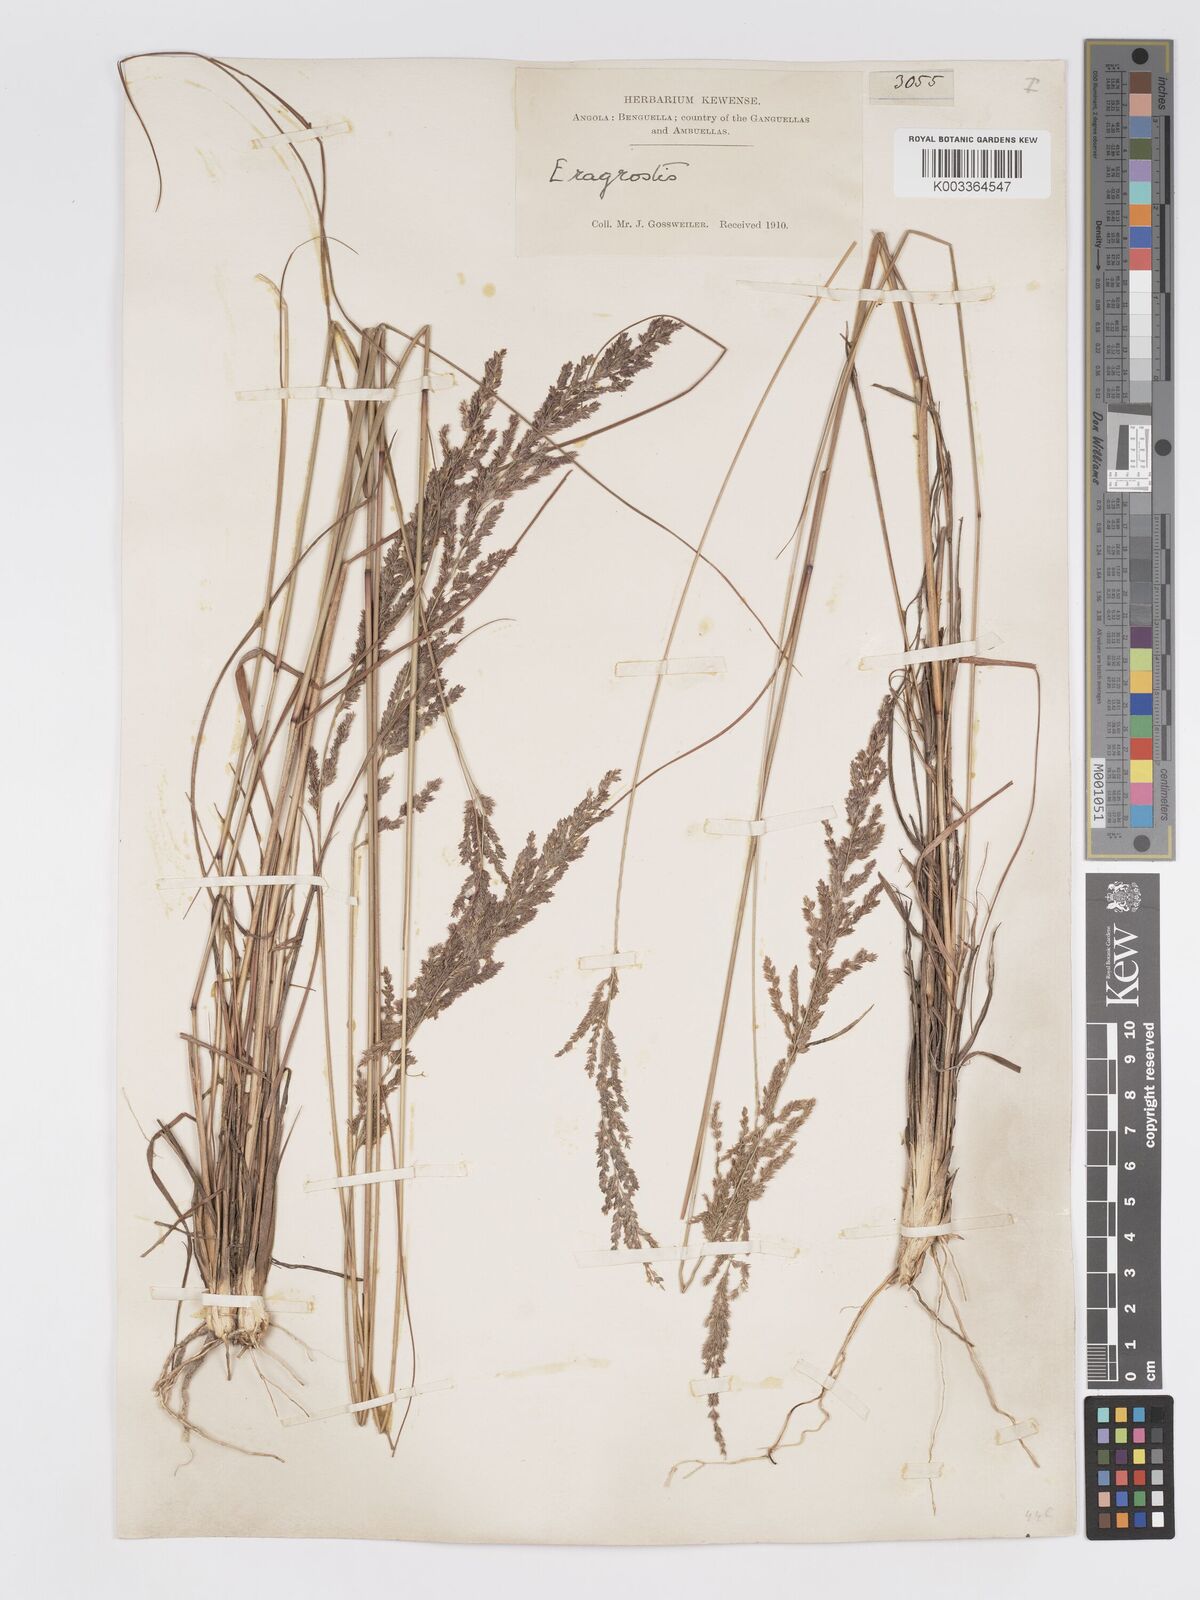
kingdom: Plantae
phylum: Tracheophyta
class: Liliopsida
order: Poales
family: Poaceae
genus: Eragrostis
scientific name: Eragrostis brainii
